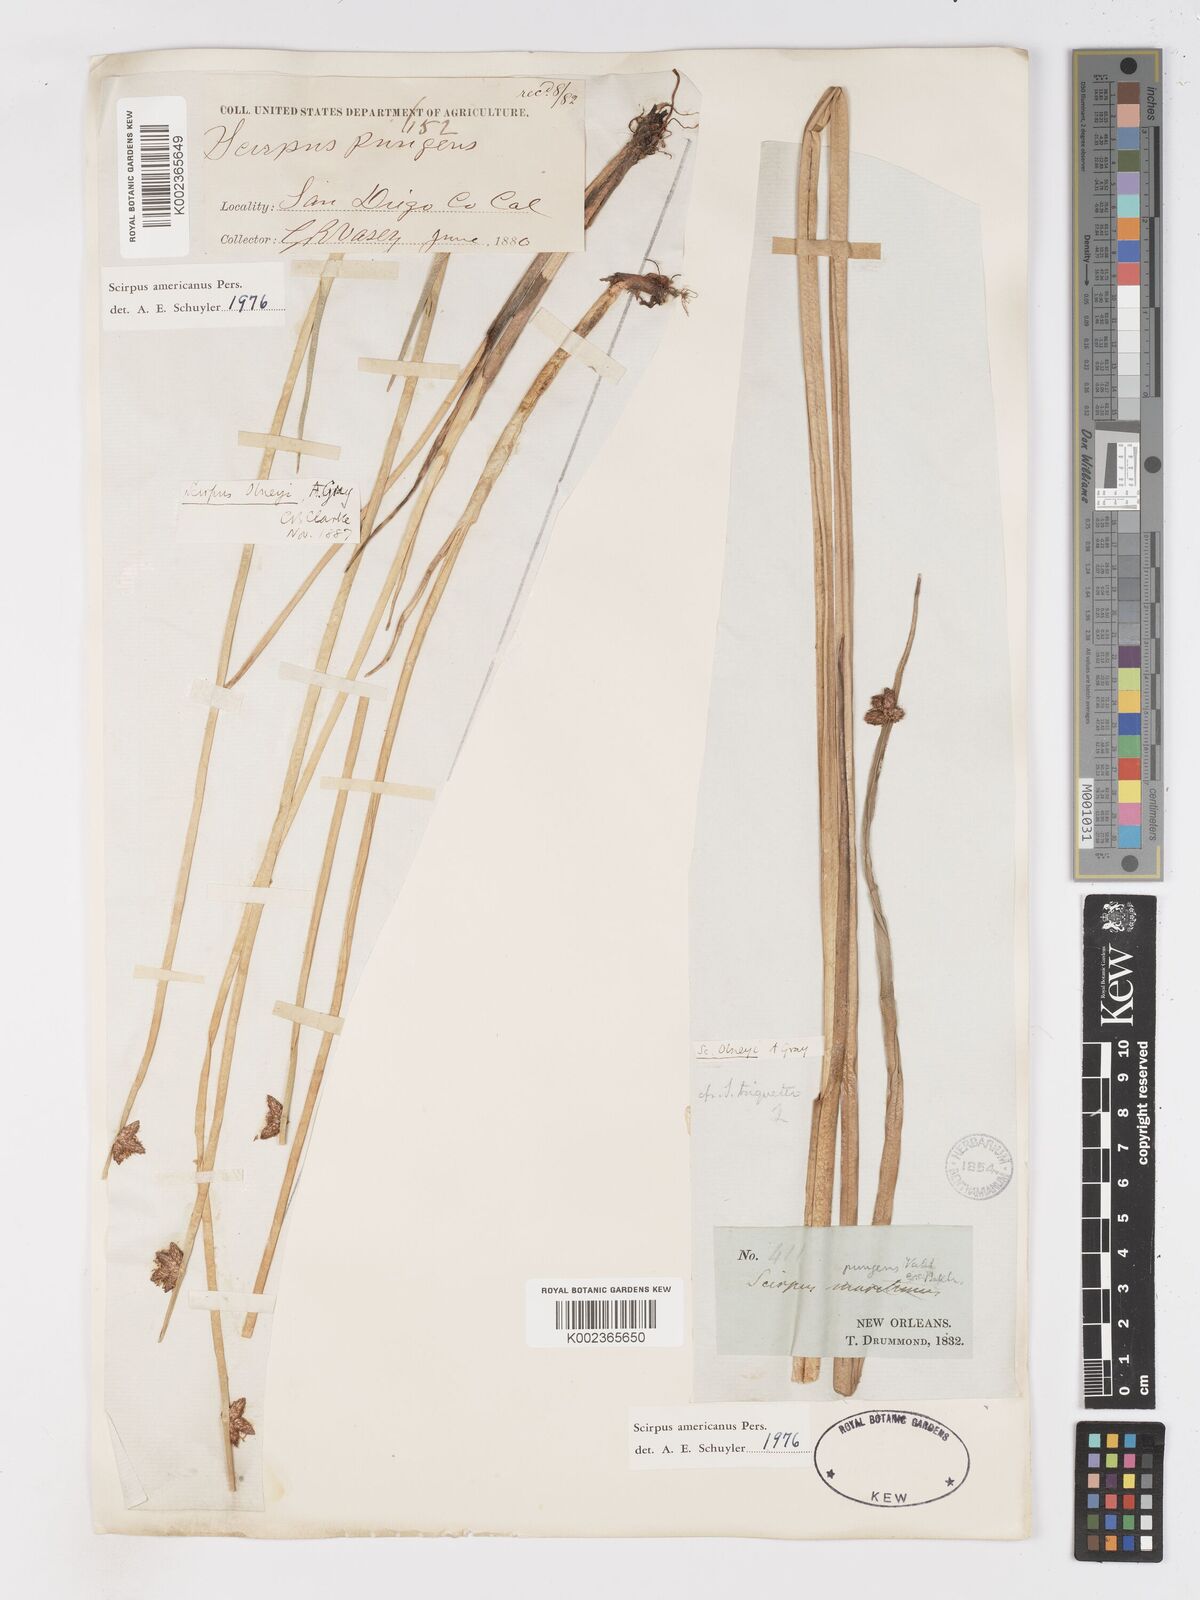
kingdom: Plantae
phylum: Tracheophyta
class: Liliopsida
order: Poales
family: Cyperaceae
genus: Schoenoplectus
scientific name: Schoenoplectus americanus
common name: American three-square bulrush
